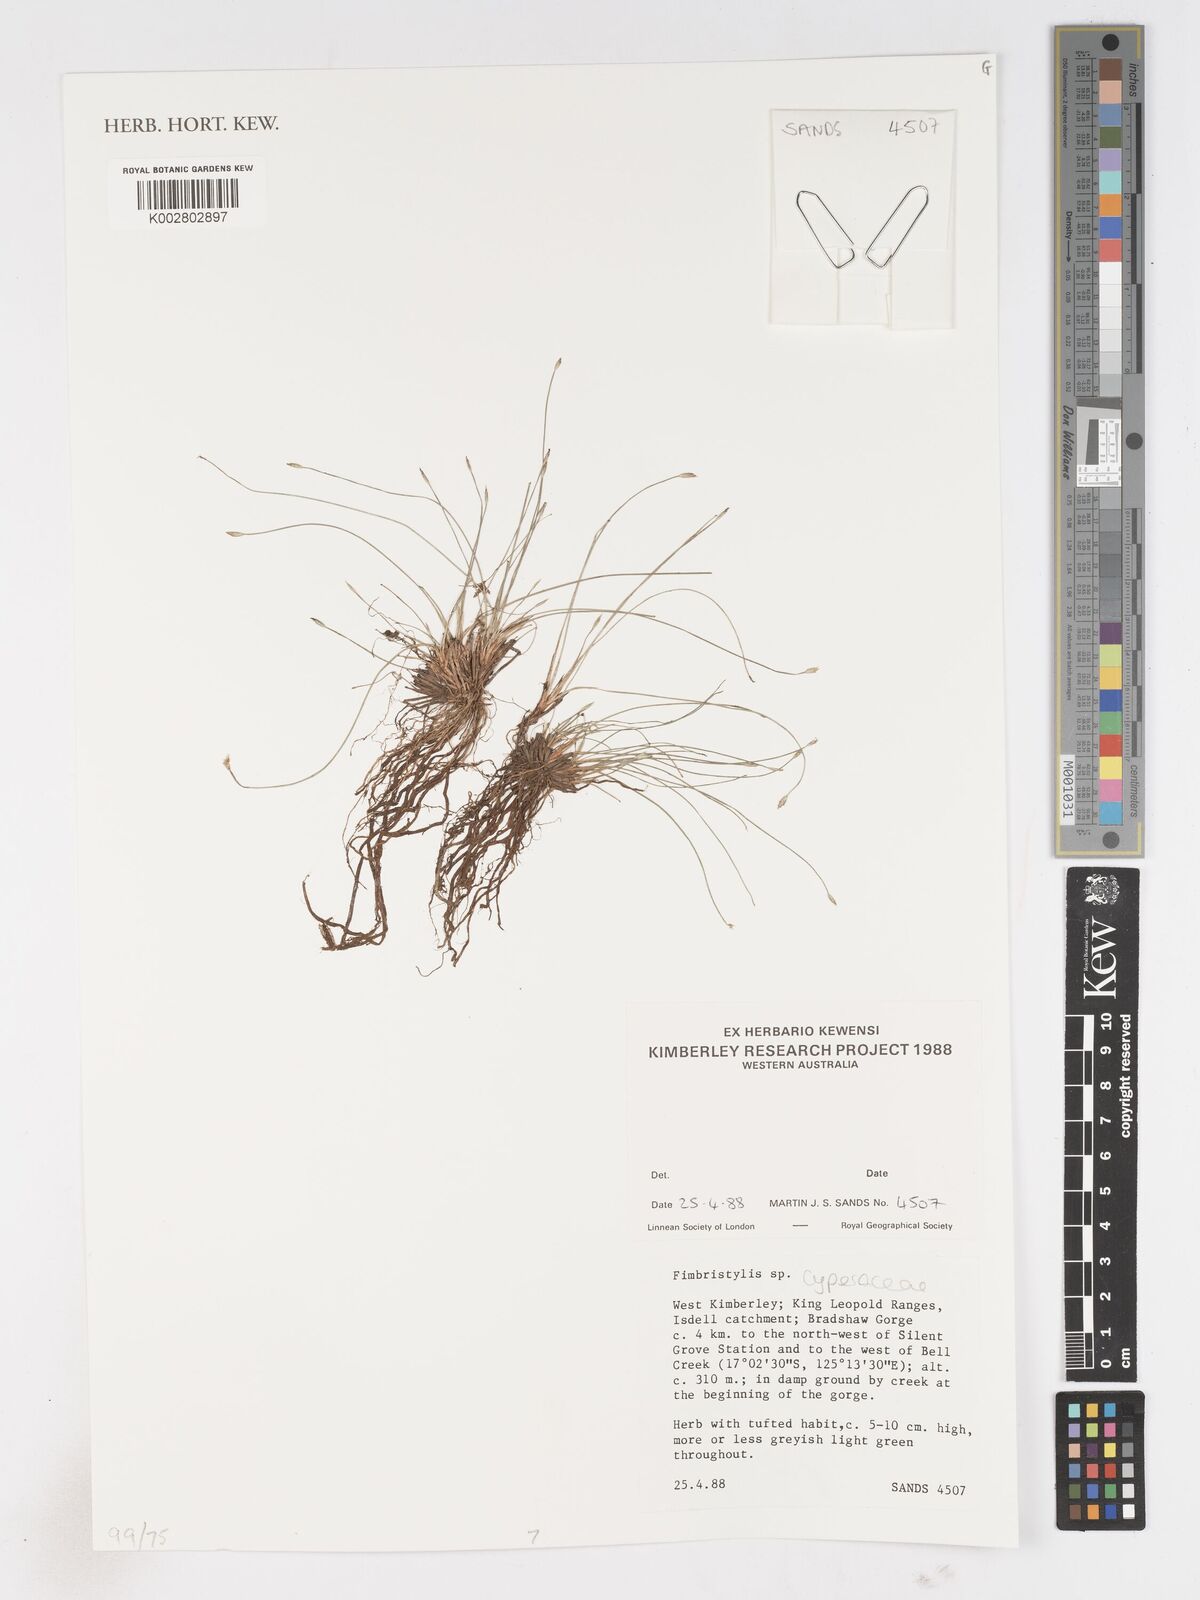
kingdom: Plantae
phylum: Tracheophyta
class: Liliopsida
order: Poales
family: Cyperaceae
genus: Fimbristylis
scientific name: Fimbristylis
